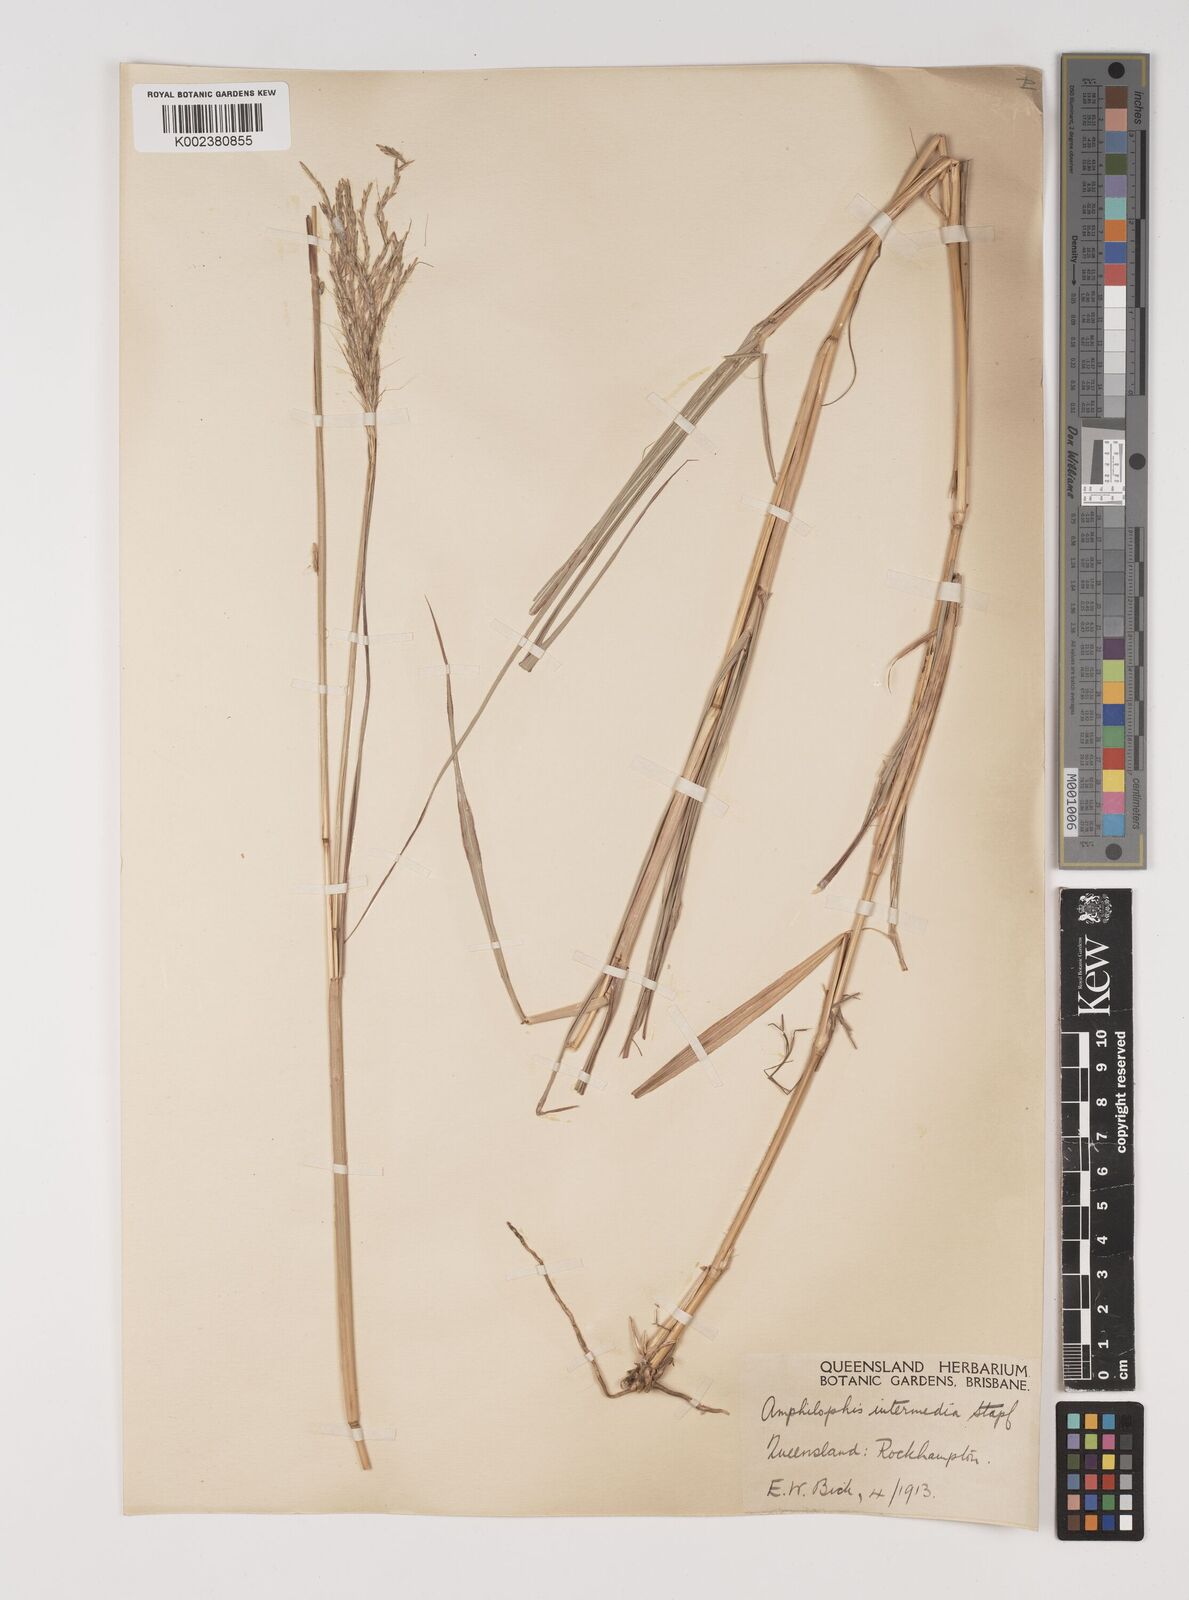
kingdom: Plantae
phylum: Tracheophyta
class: Liliopsida
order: Poales
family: Poaceae
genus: Bothriochloa
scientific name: Bothriochloa bladhii
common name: Caucasian bluestem
